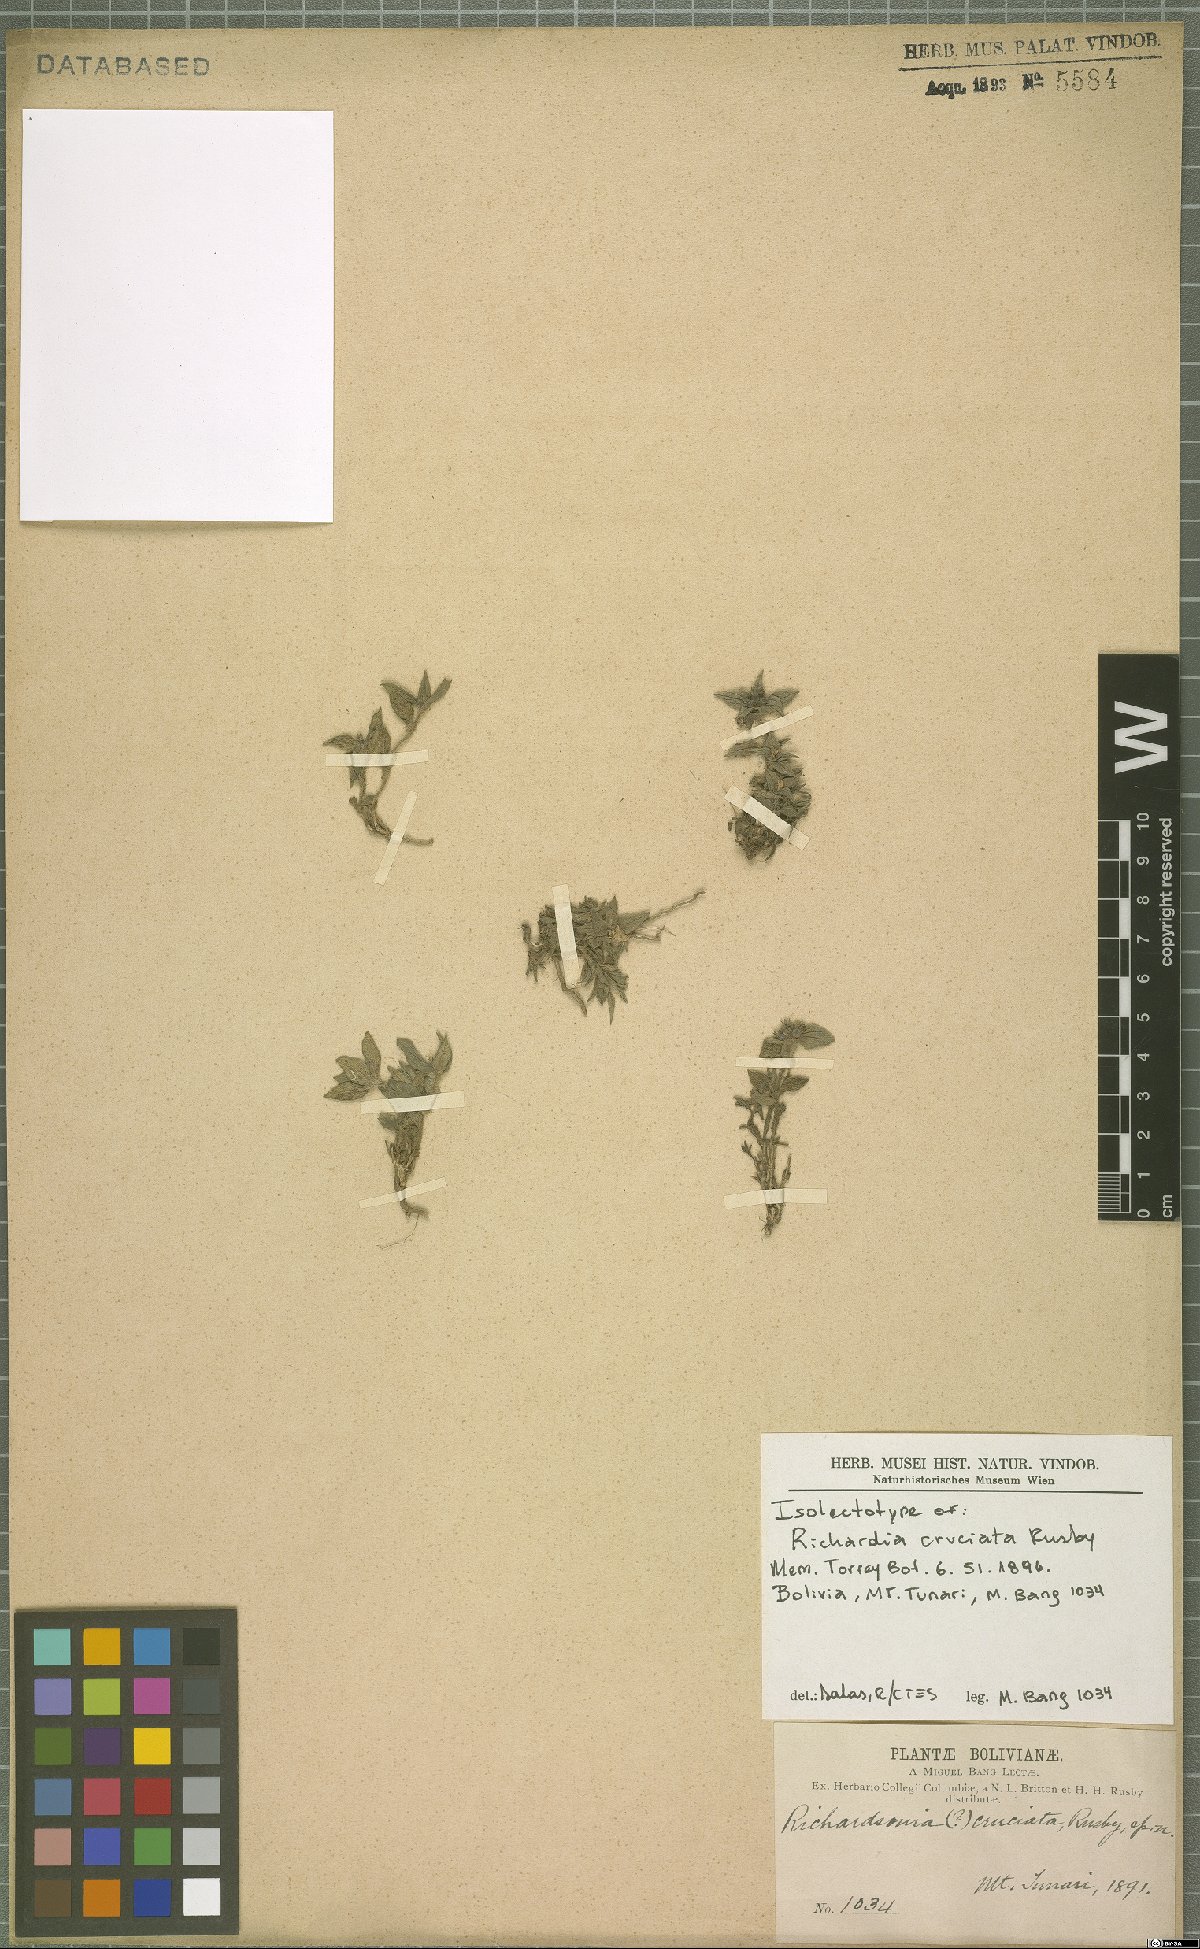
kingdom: Plantae
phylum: Tracheophyta
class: Magnoliopsida
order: Gentianales
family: Rubiaceae
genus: Richardia
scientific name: Richardia cruciata
